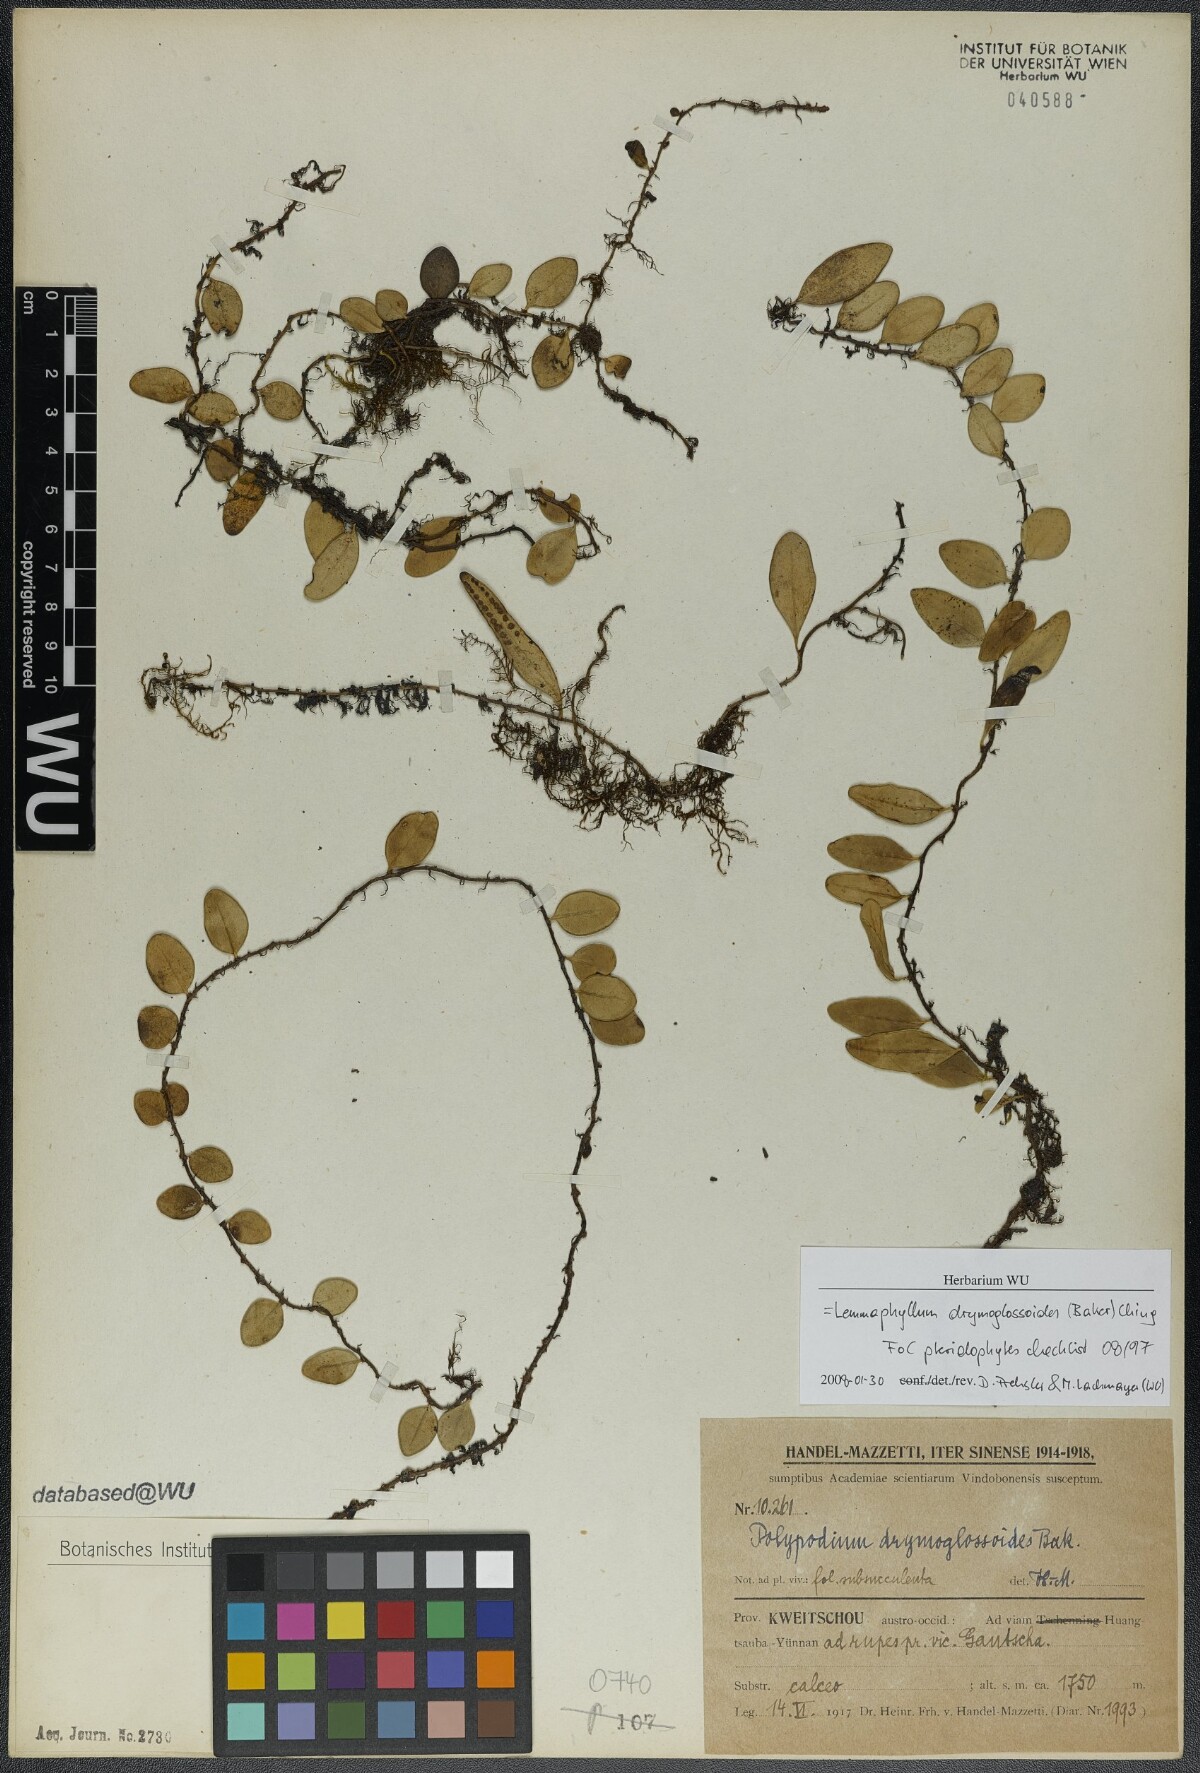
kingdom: Plantae
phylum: Tracheophyta
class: Polypodiopsida
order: Polypodiales
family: Polypodiaceae
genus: Lepisorus
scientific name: Lepisorus carnosus
